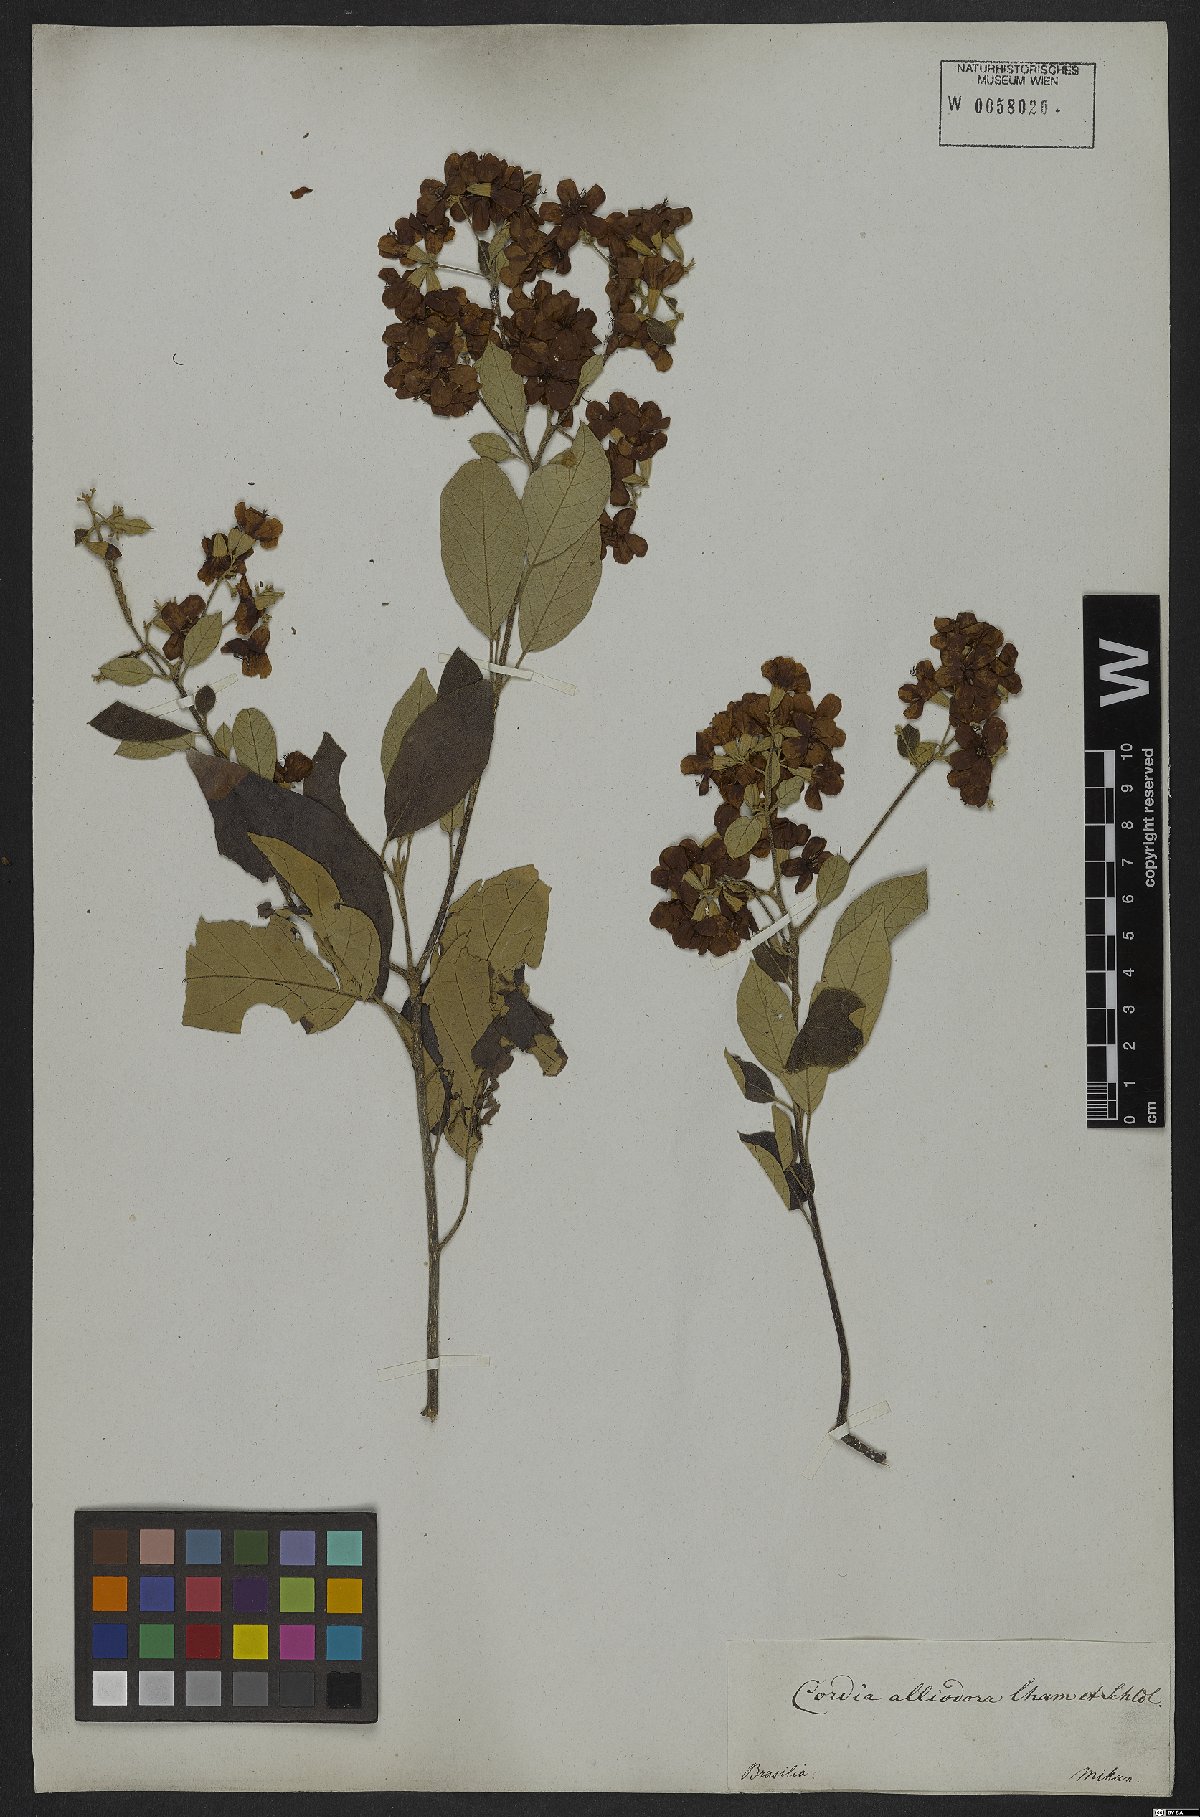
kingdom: Plantae
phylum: Tracheophyta
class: Magnoliopsida
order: Boraginales
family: Cordiaceae
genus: Cordia
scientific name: Cordia alliodora
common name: Spanish elm
